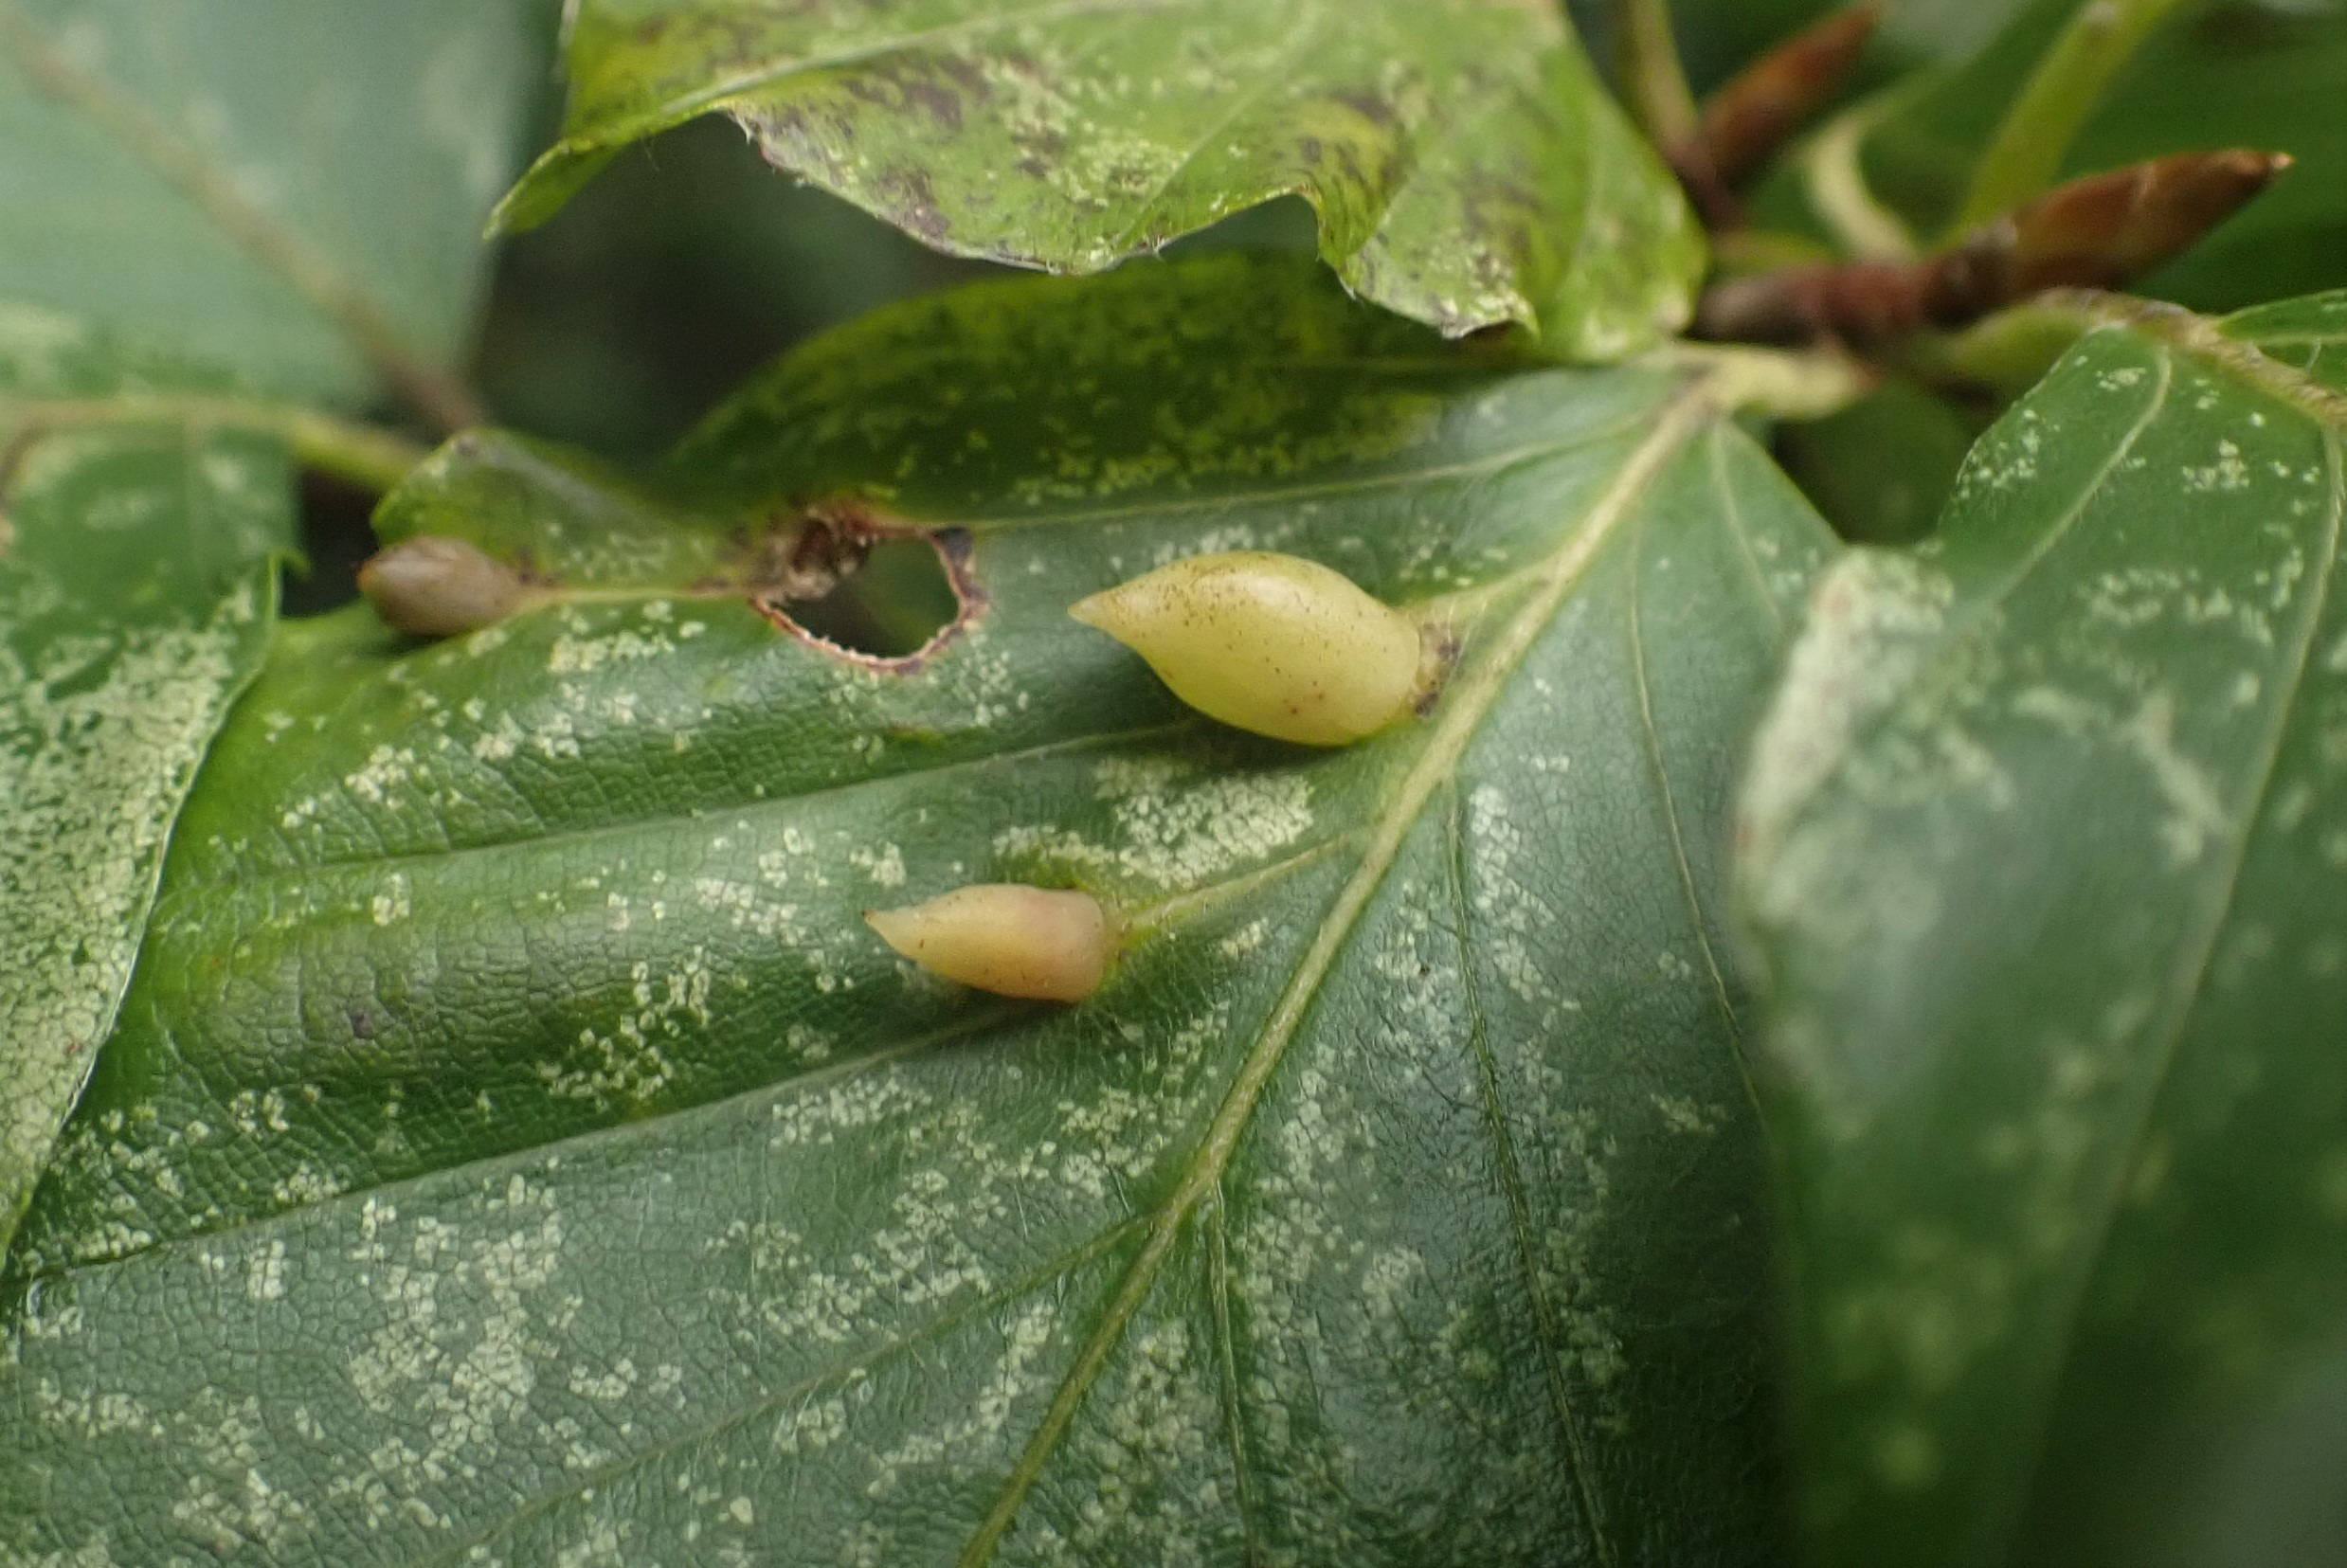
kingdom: Animalia
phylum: Arthropoda
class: Insecta
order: Diptera
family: Cecidomyiidae
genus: Mikiola
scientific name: Mikiola fagi
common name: Bøgegalmyg
